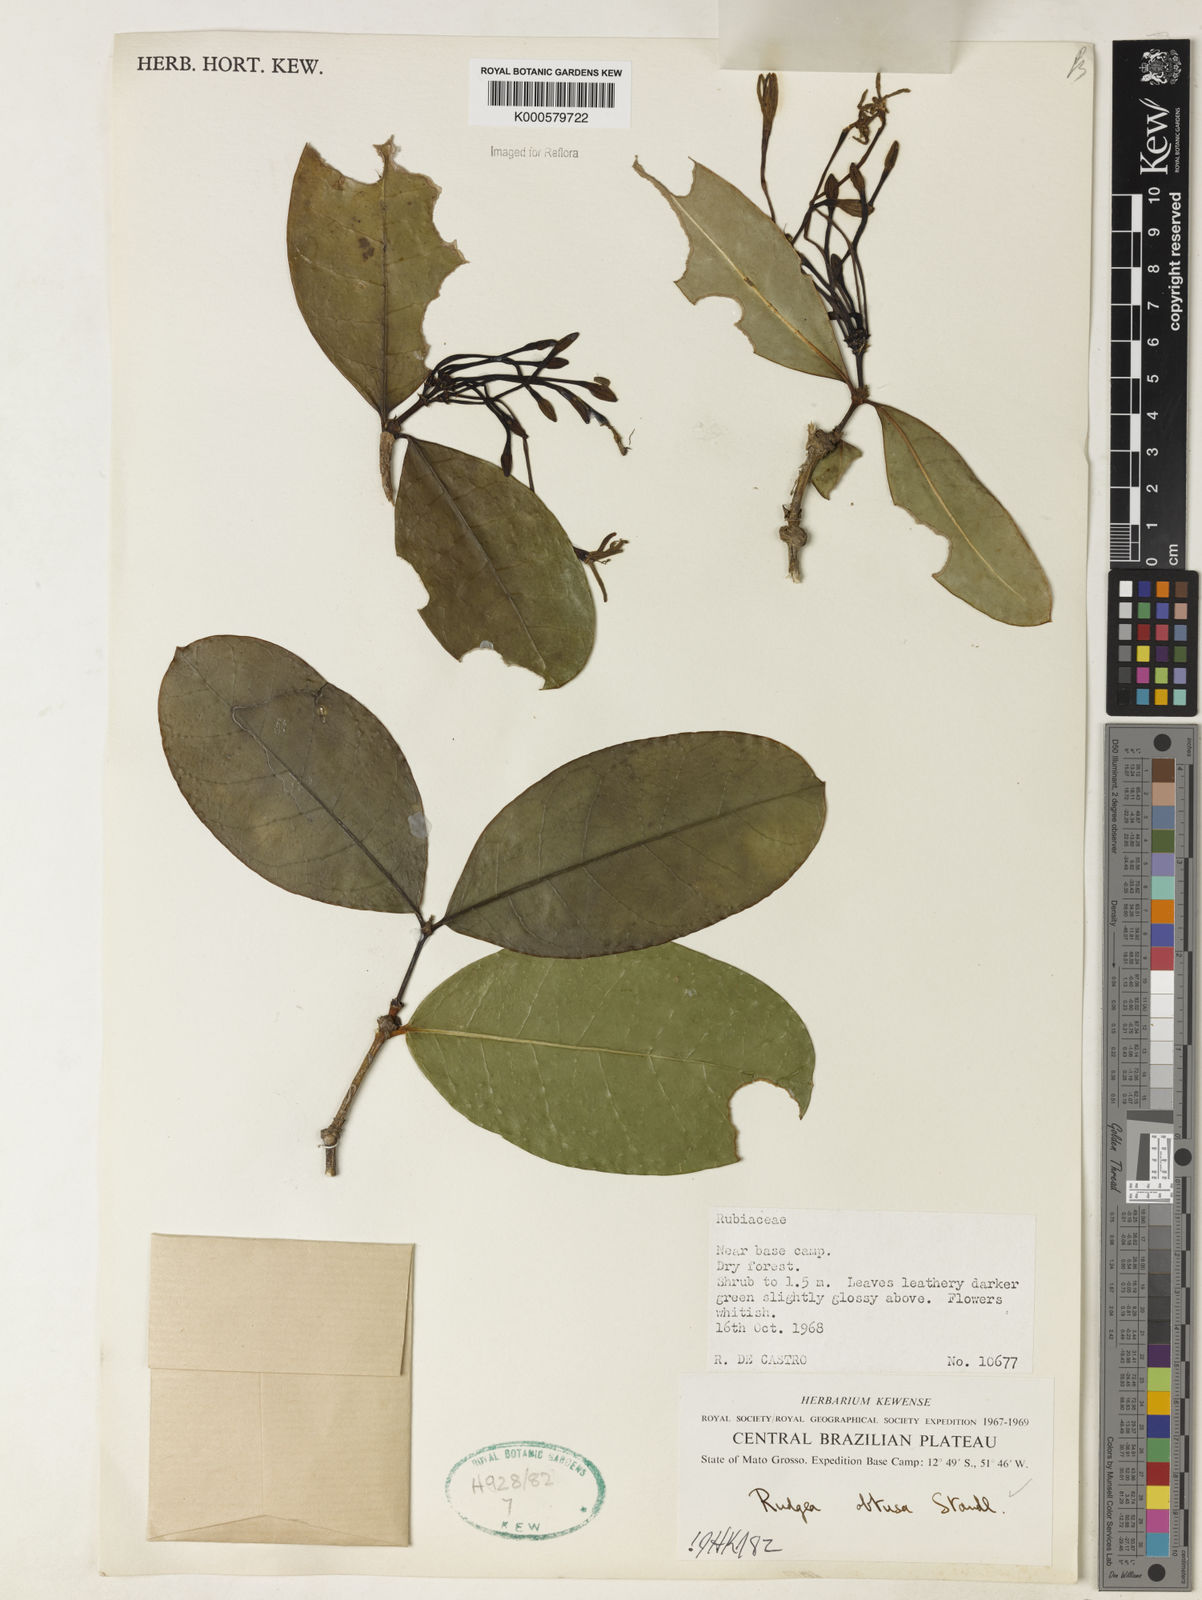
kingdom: Plantae
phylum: Tracheophyta
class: Magnoliopsida
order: Gentianales
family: Rubiaceae
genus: Rudgea
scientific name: Rudgea goyazensis
